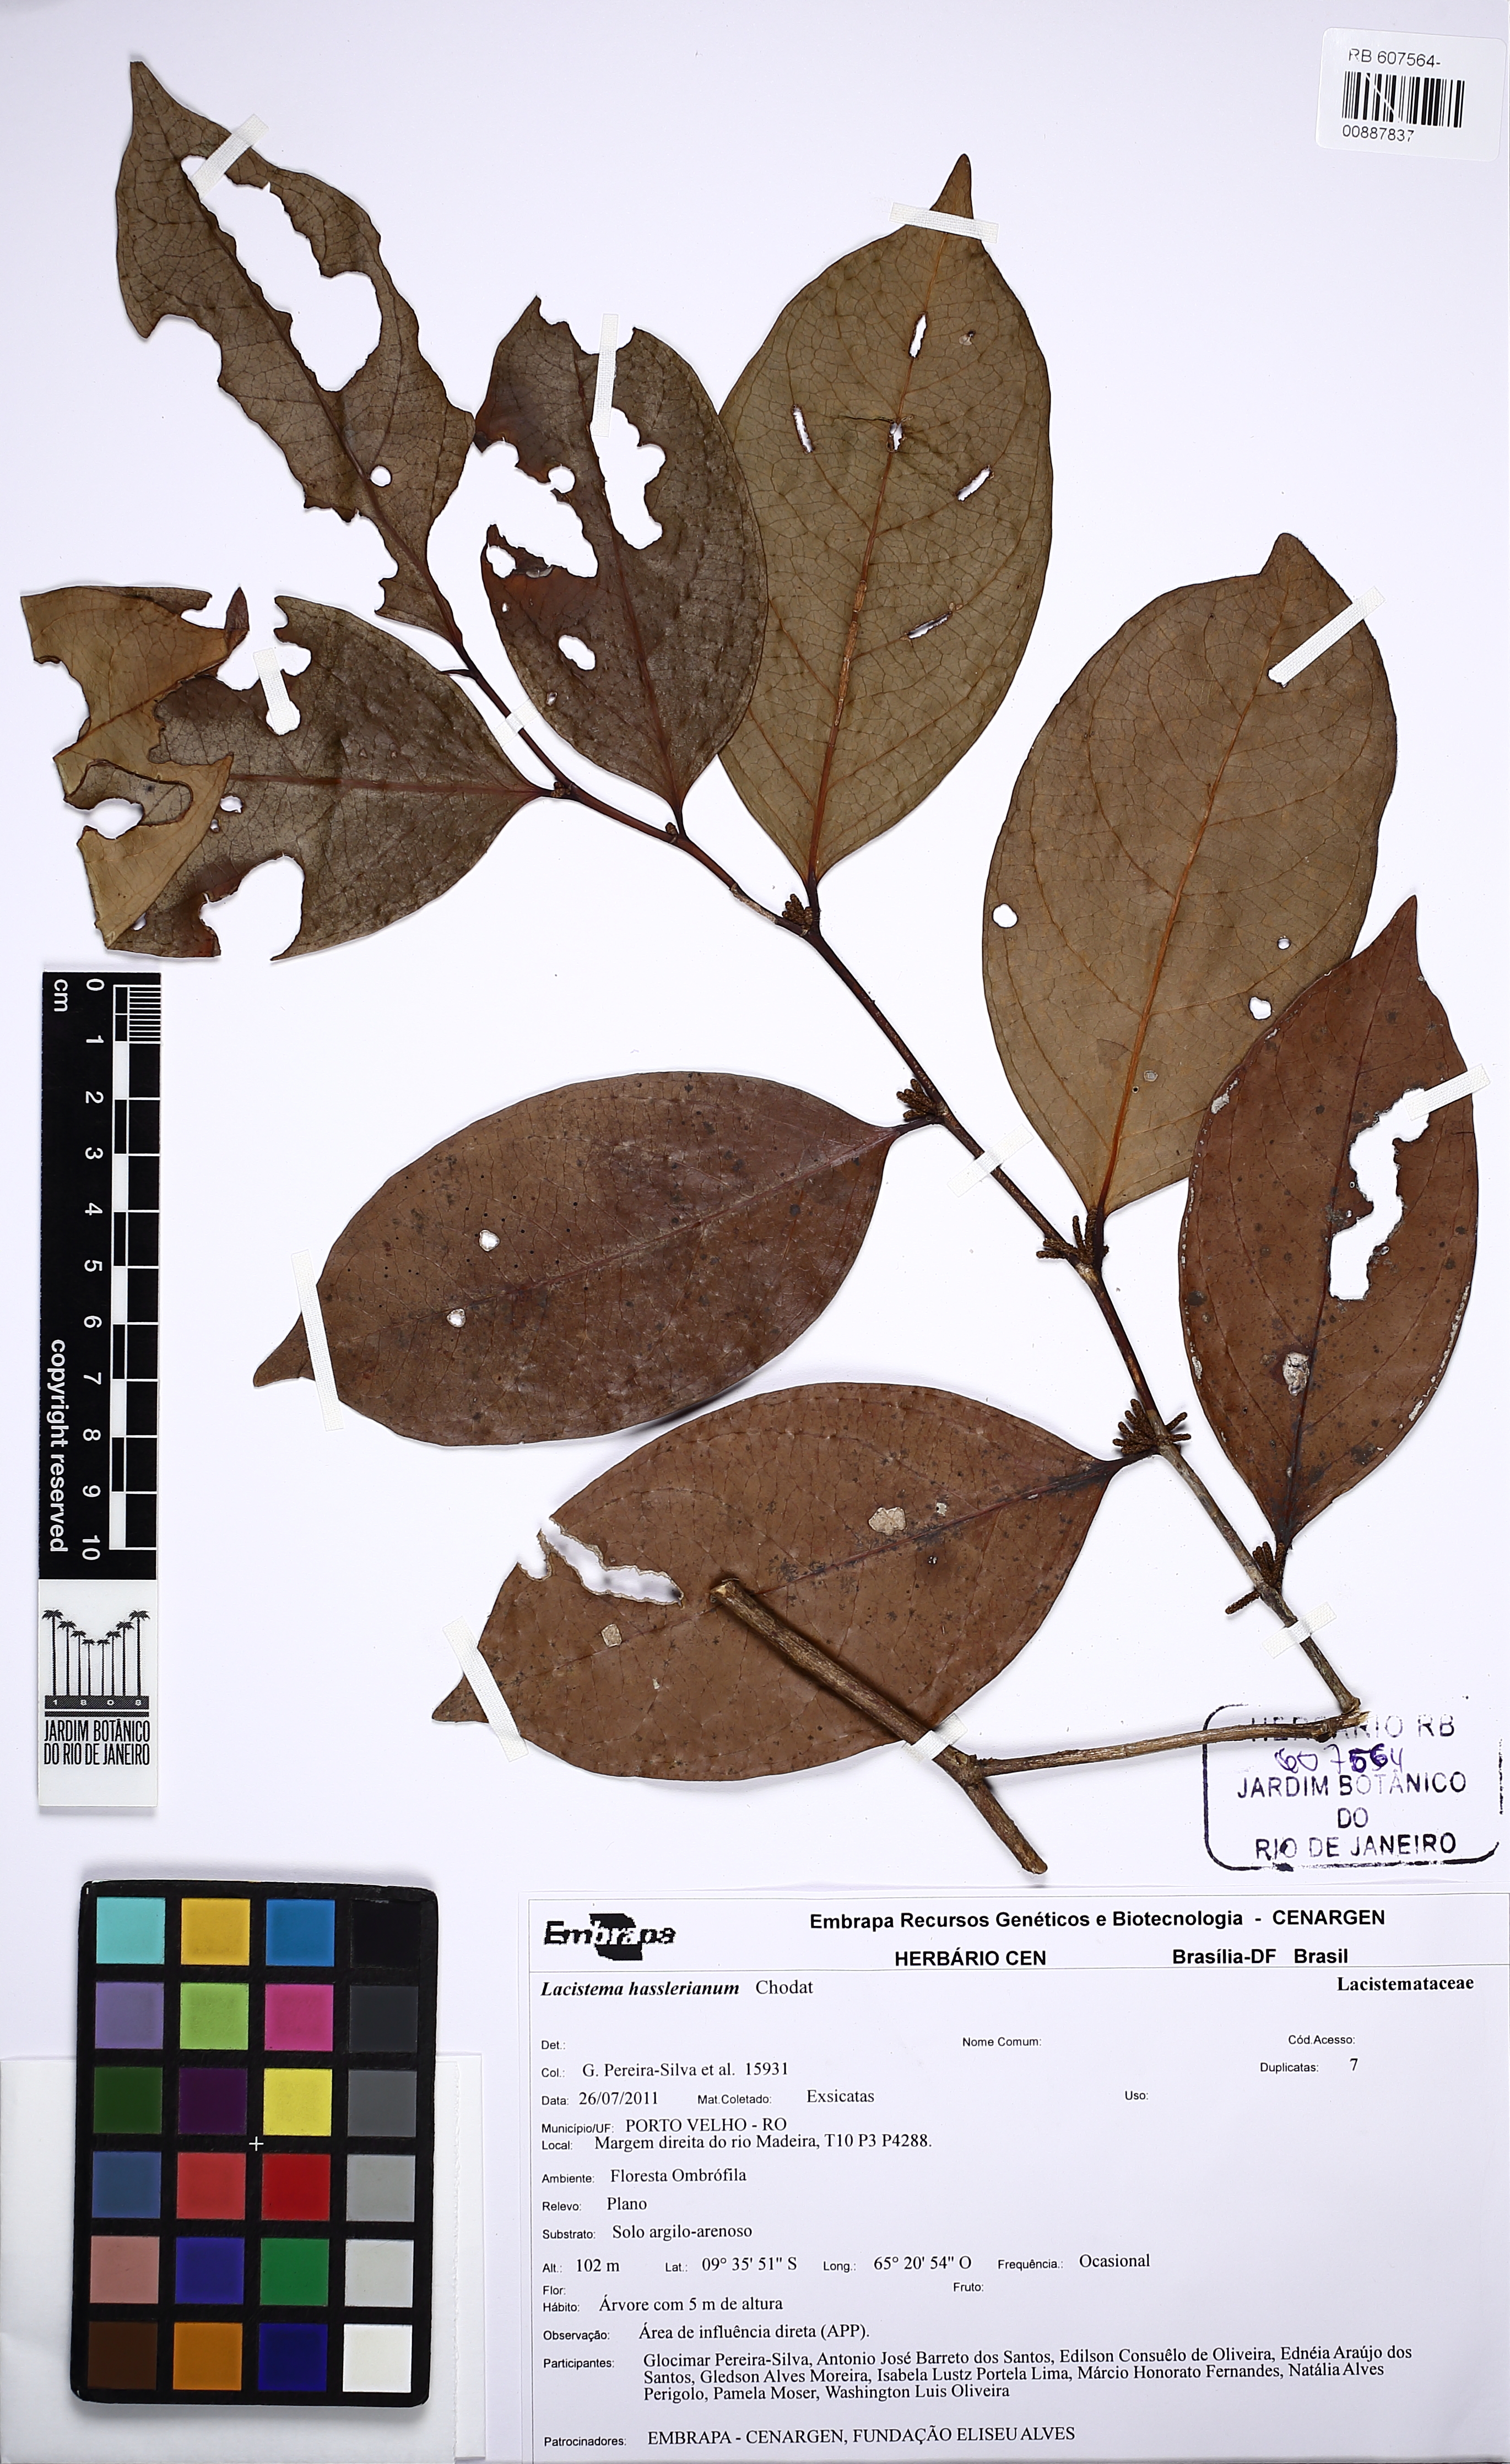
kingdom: Plantae
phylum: Tracheophyta
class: Magnoliopsida
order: Malpighiales
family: Lacistemataceae
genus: Lacistema
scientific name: Lacistema hasslerianum
